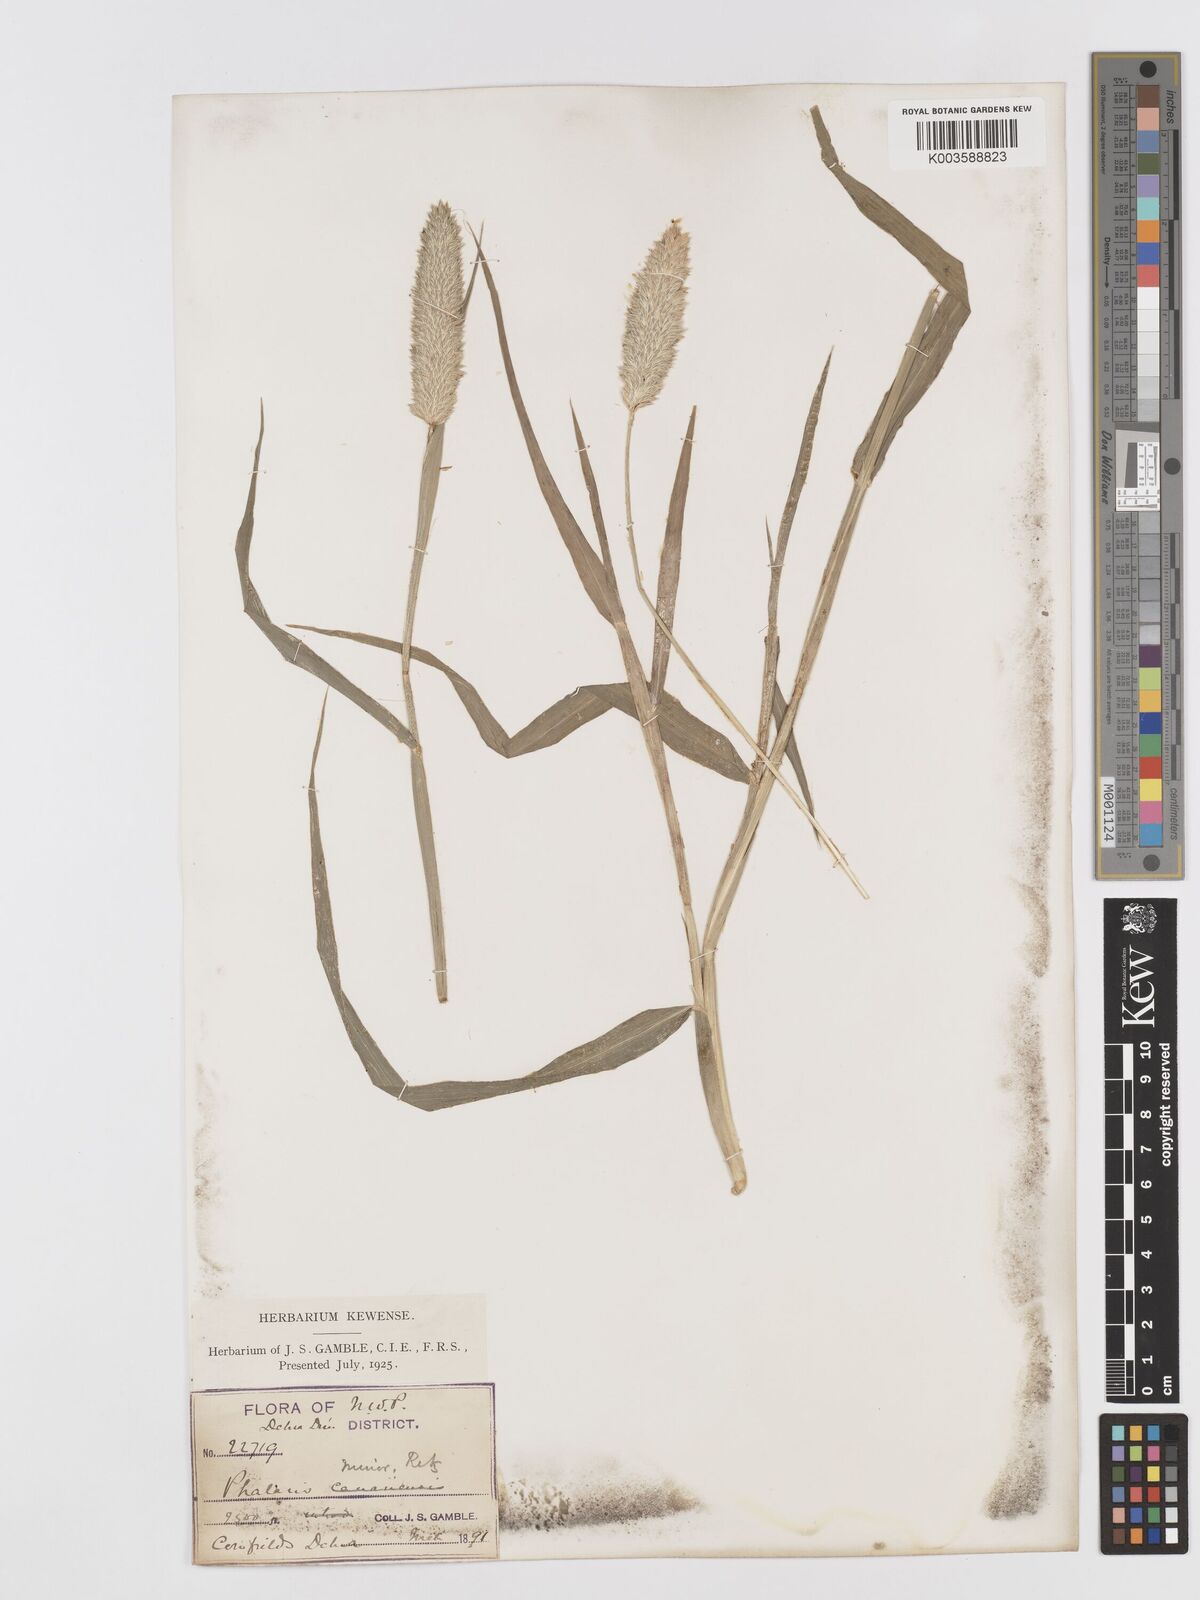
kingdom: Plantae
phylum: Tracheophyta
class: Liliopsida
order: Poales
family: Poaceae
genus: Phalaris
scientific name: Phalaris minor
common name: Littleseed canarygrass
